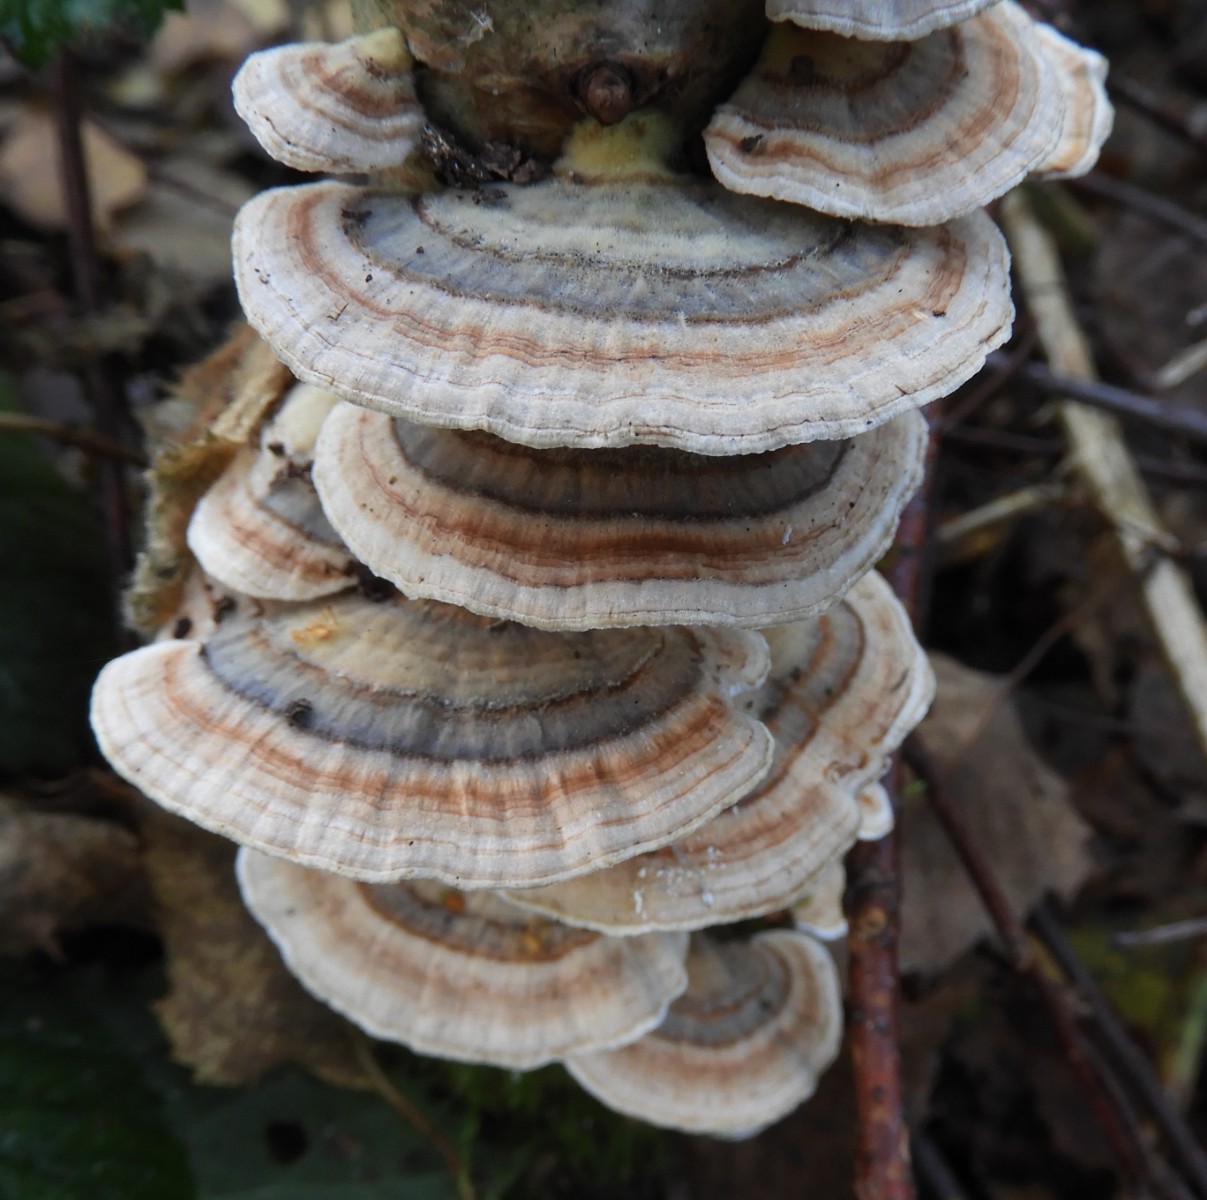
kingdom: Fungi
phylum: Basidiomycota
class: Agaricomycetes
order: Polyporales
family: Polyporaceae
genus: Trametes
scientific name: Trametes versicolor
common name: broget læderporesvamp
